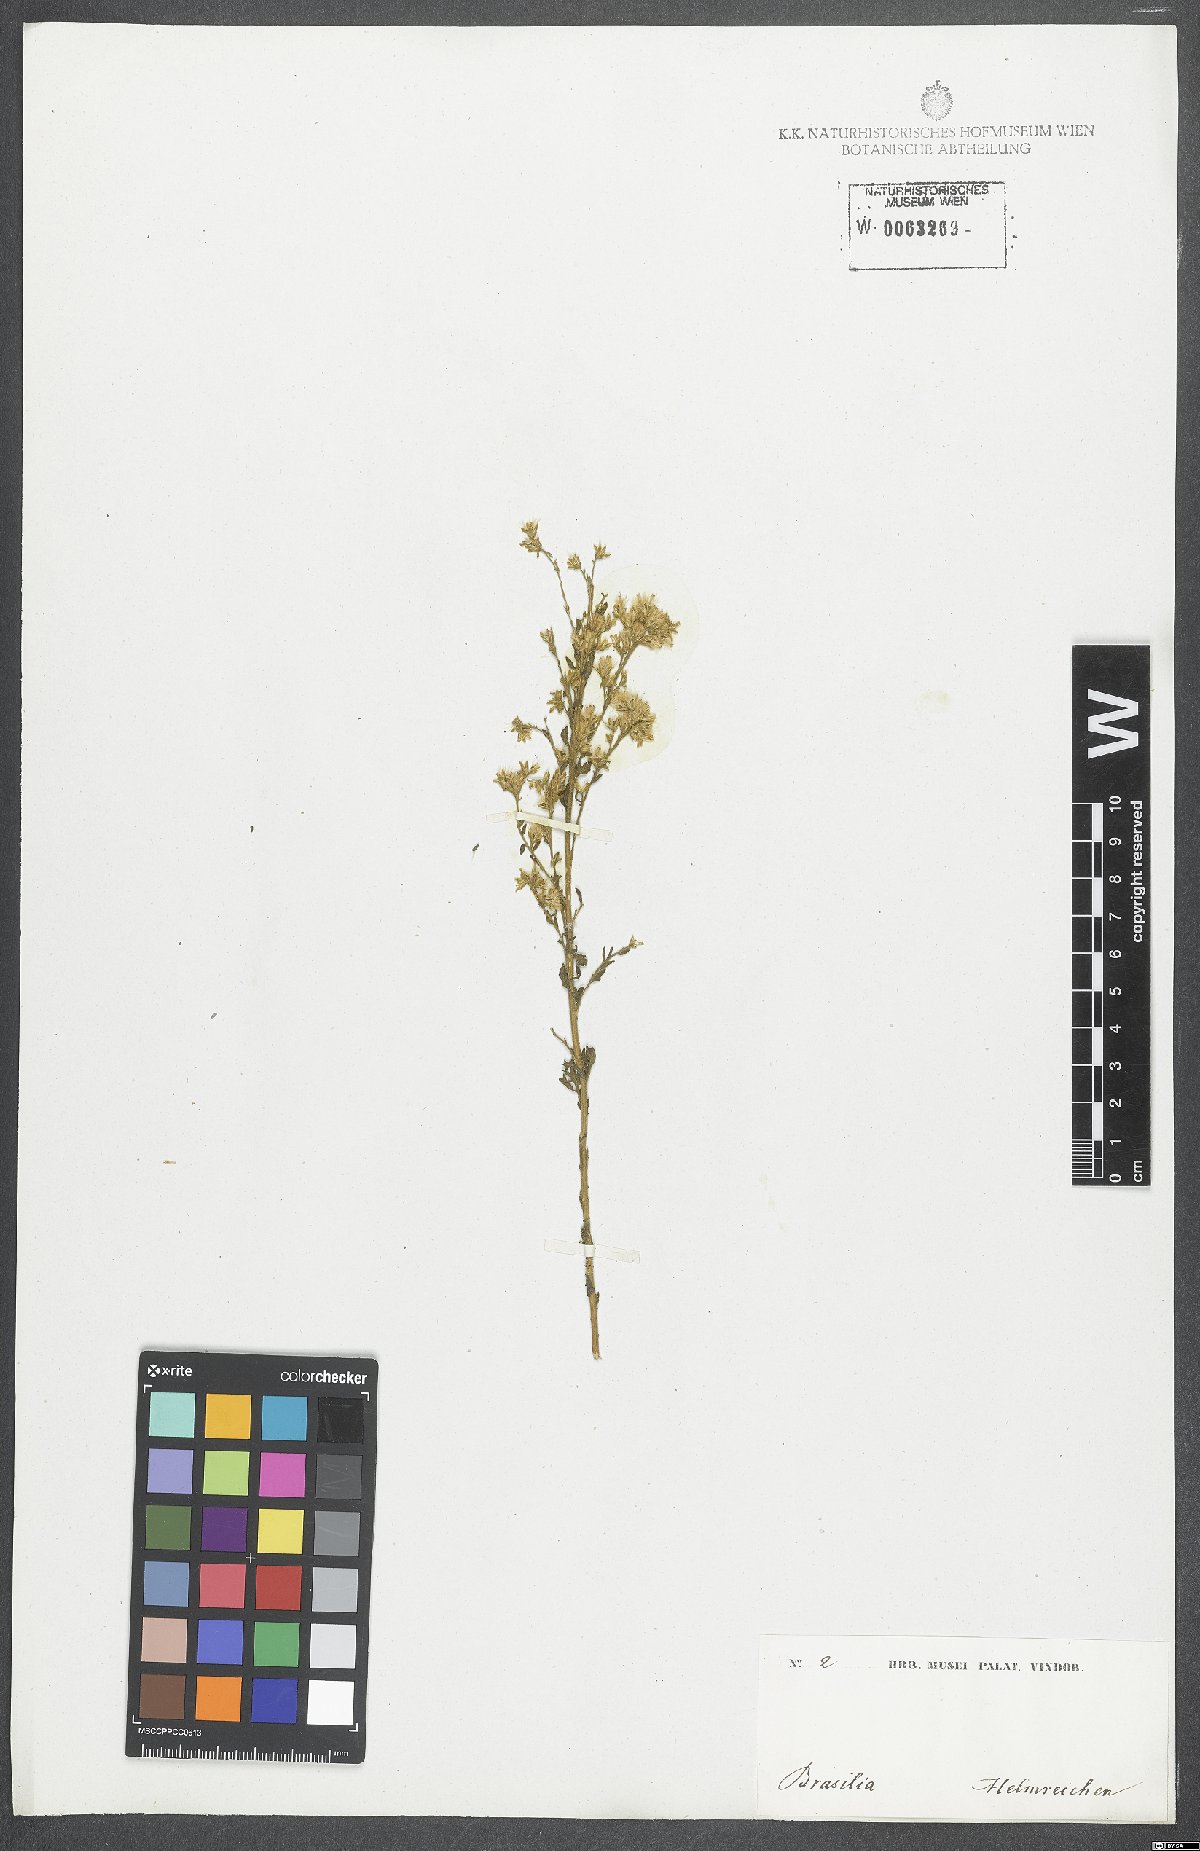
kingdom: Plantae
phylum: Tracheophyta
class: Magnoliopsida
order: Asterales
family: Asteraceae
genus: Stomatanthes
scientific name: Stomatanthes pinnatipartitus
